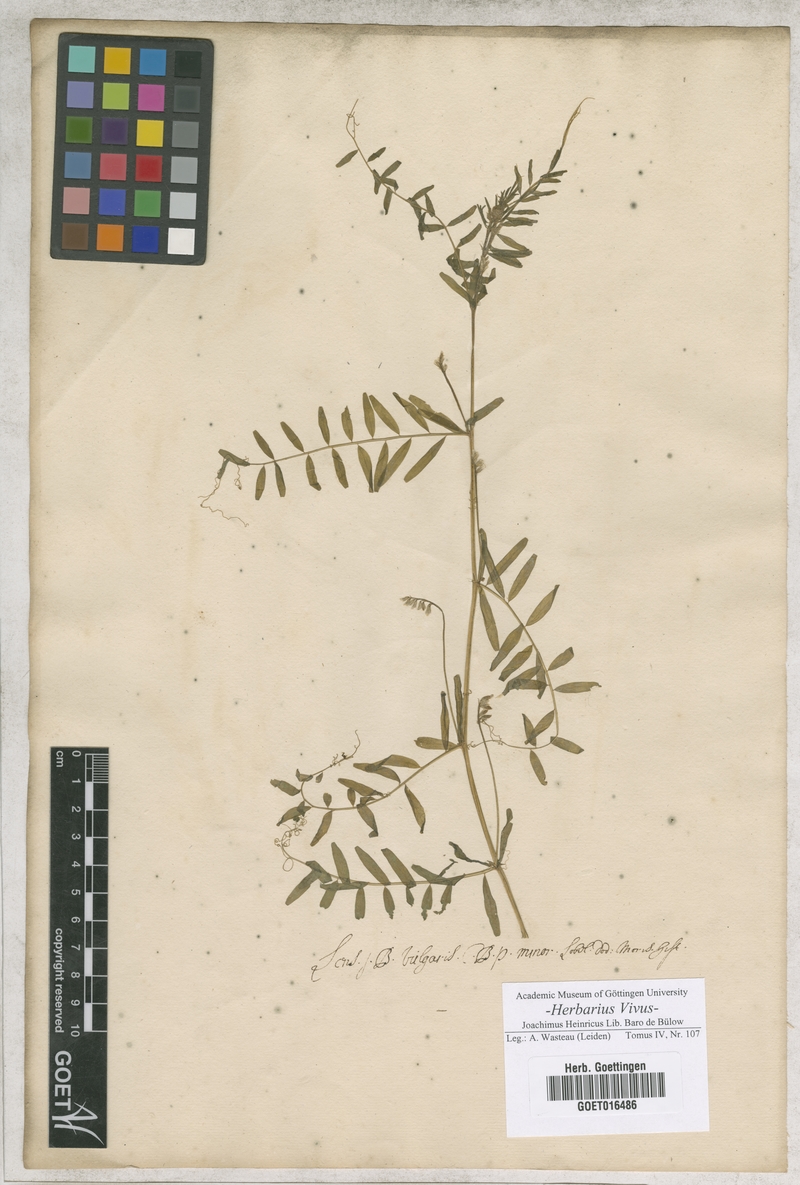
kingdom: Plantae
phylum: Tracheophyta
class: Magnoliopsida
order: Fabales
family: Fabaceae
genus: Vicia
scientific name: Vicia lens
